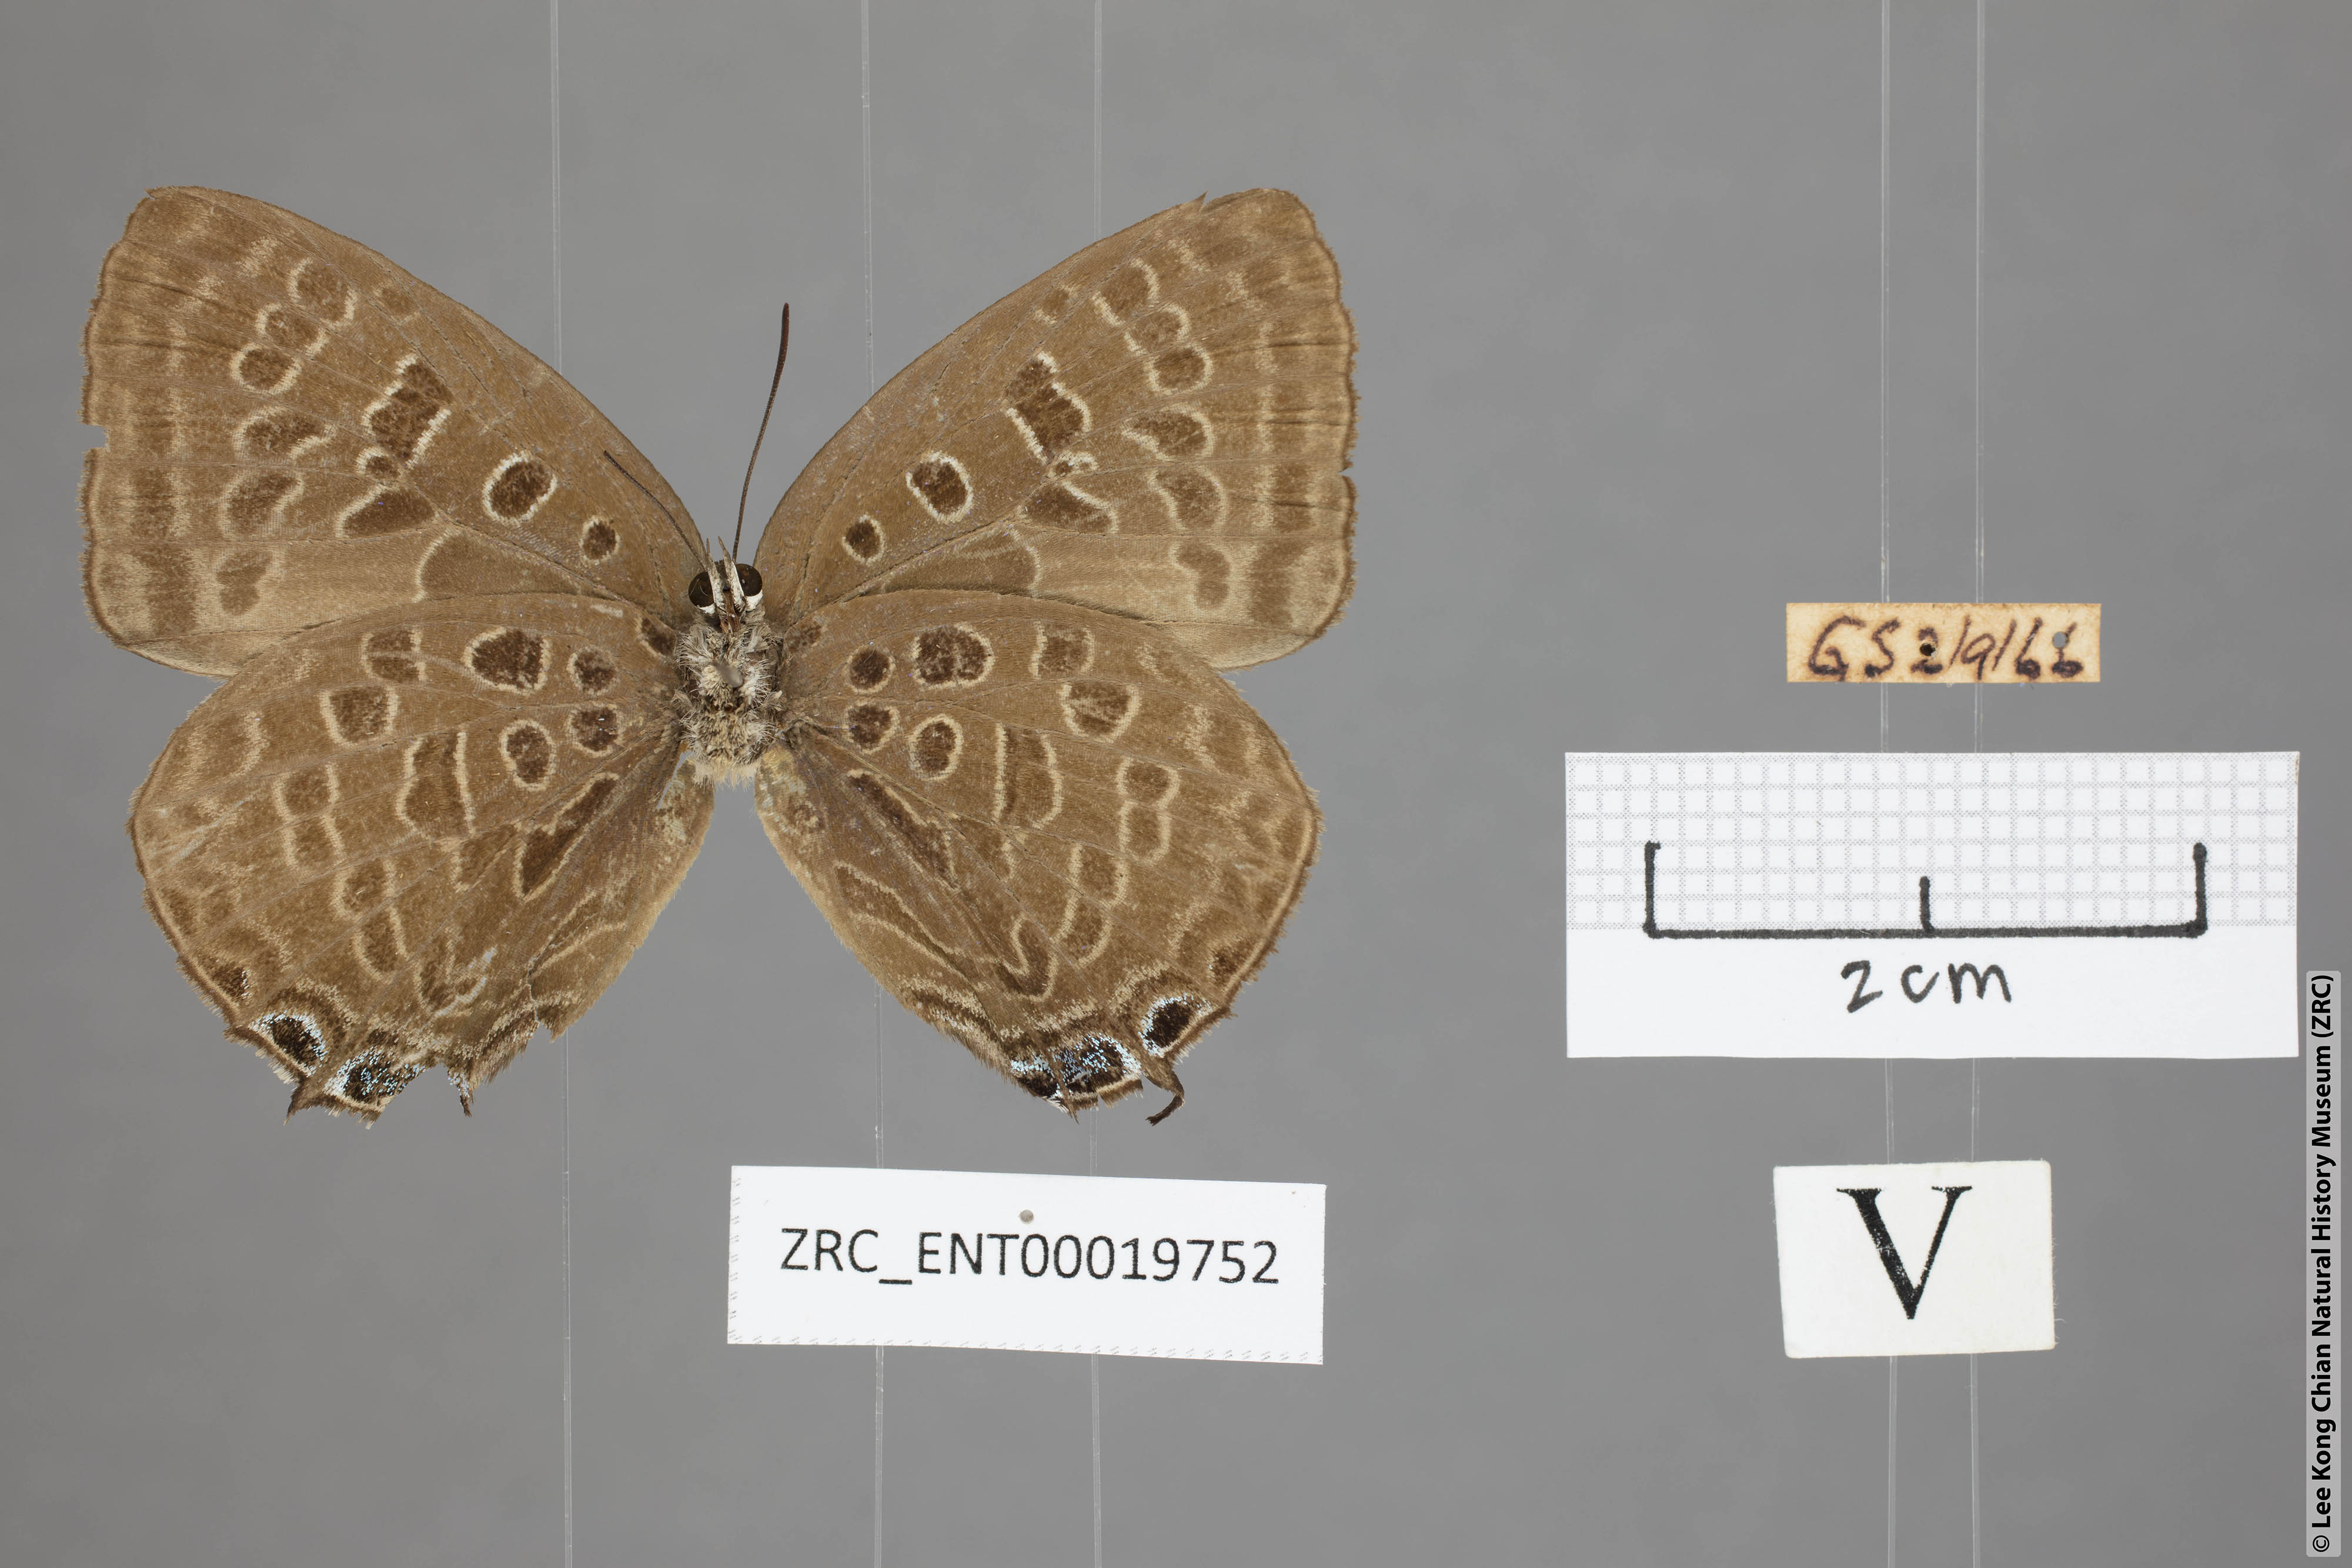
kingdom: Animalia
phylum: Arthropoda
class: Insecta
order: Lepidoptera
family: Lycaenidae
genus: Arhopala
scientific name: Arhopala opalina
